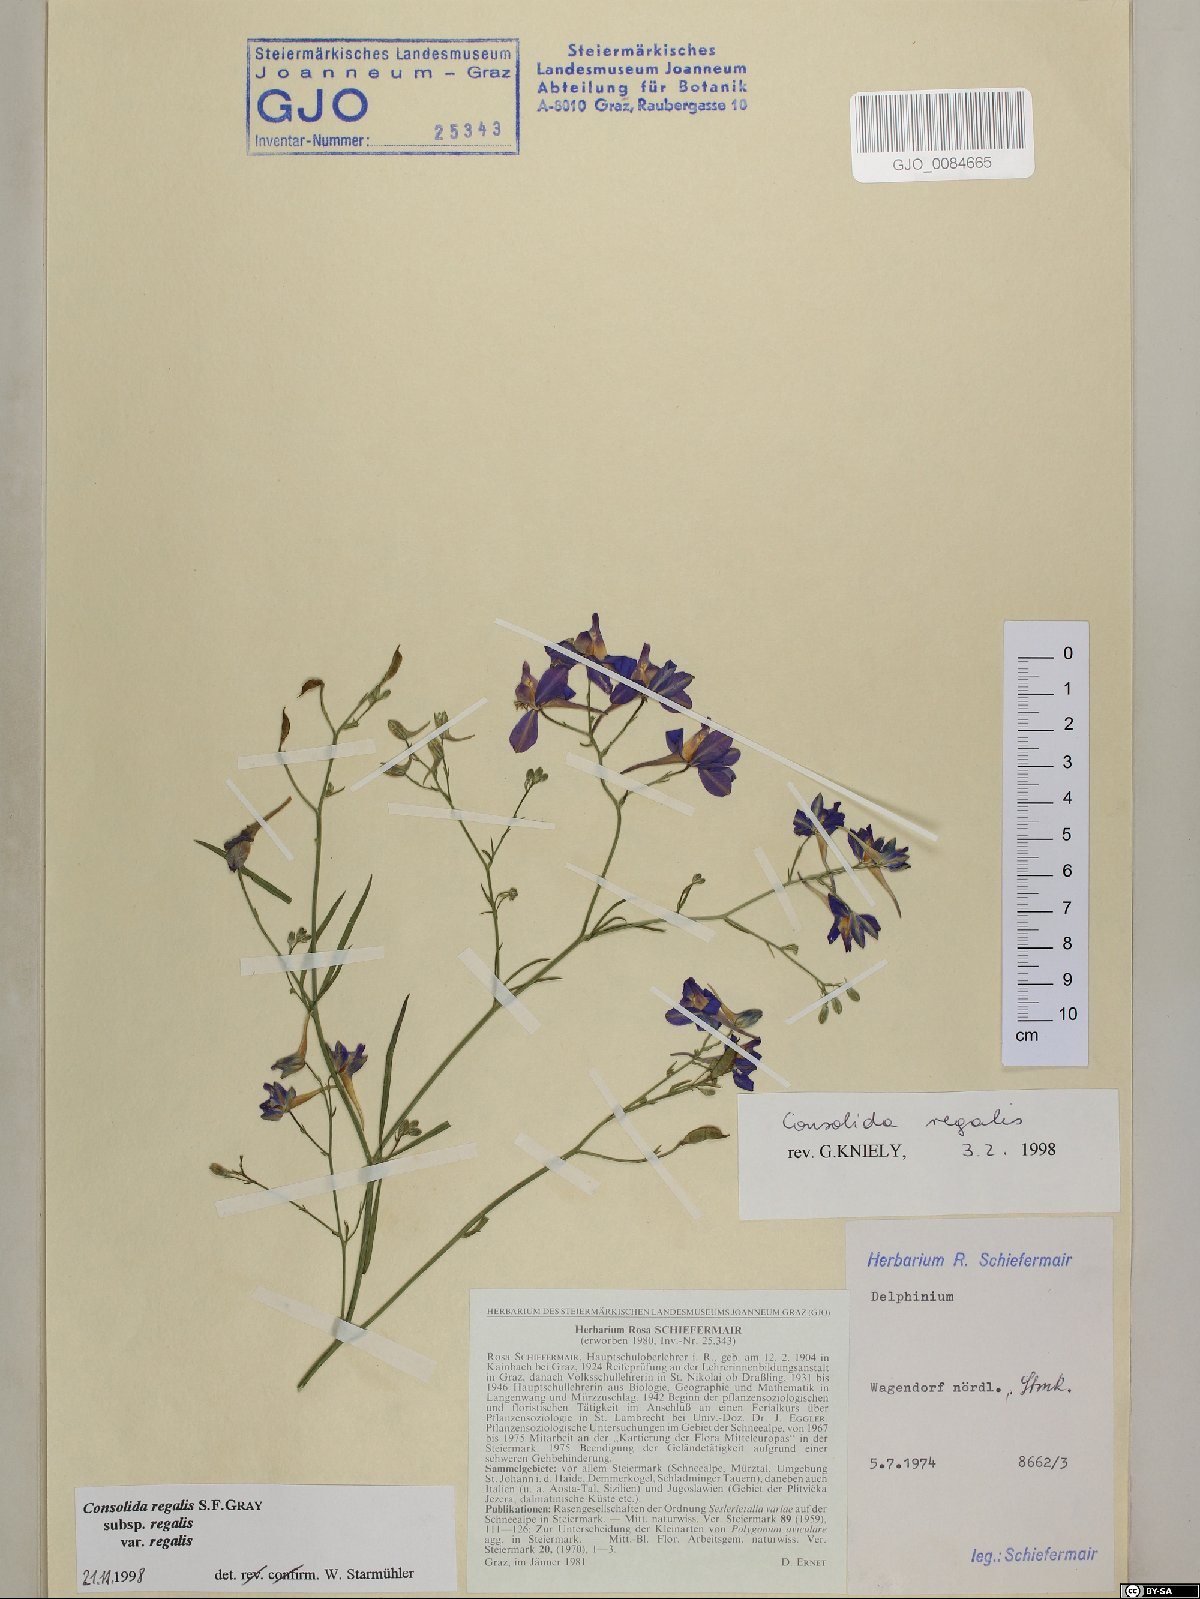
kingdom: Plantae
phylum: Tracheophyta
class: Magnoliopsida
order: Ranunculales
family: Ranunculaceae
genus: Delphinium
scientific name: Delphinium consolida
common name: Branching larkspur
